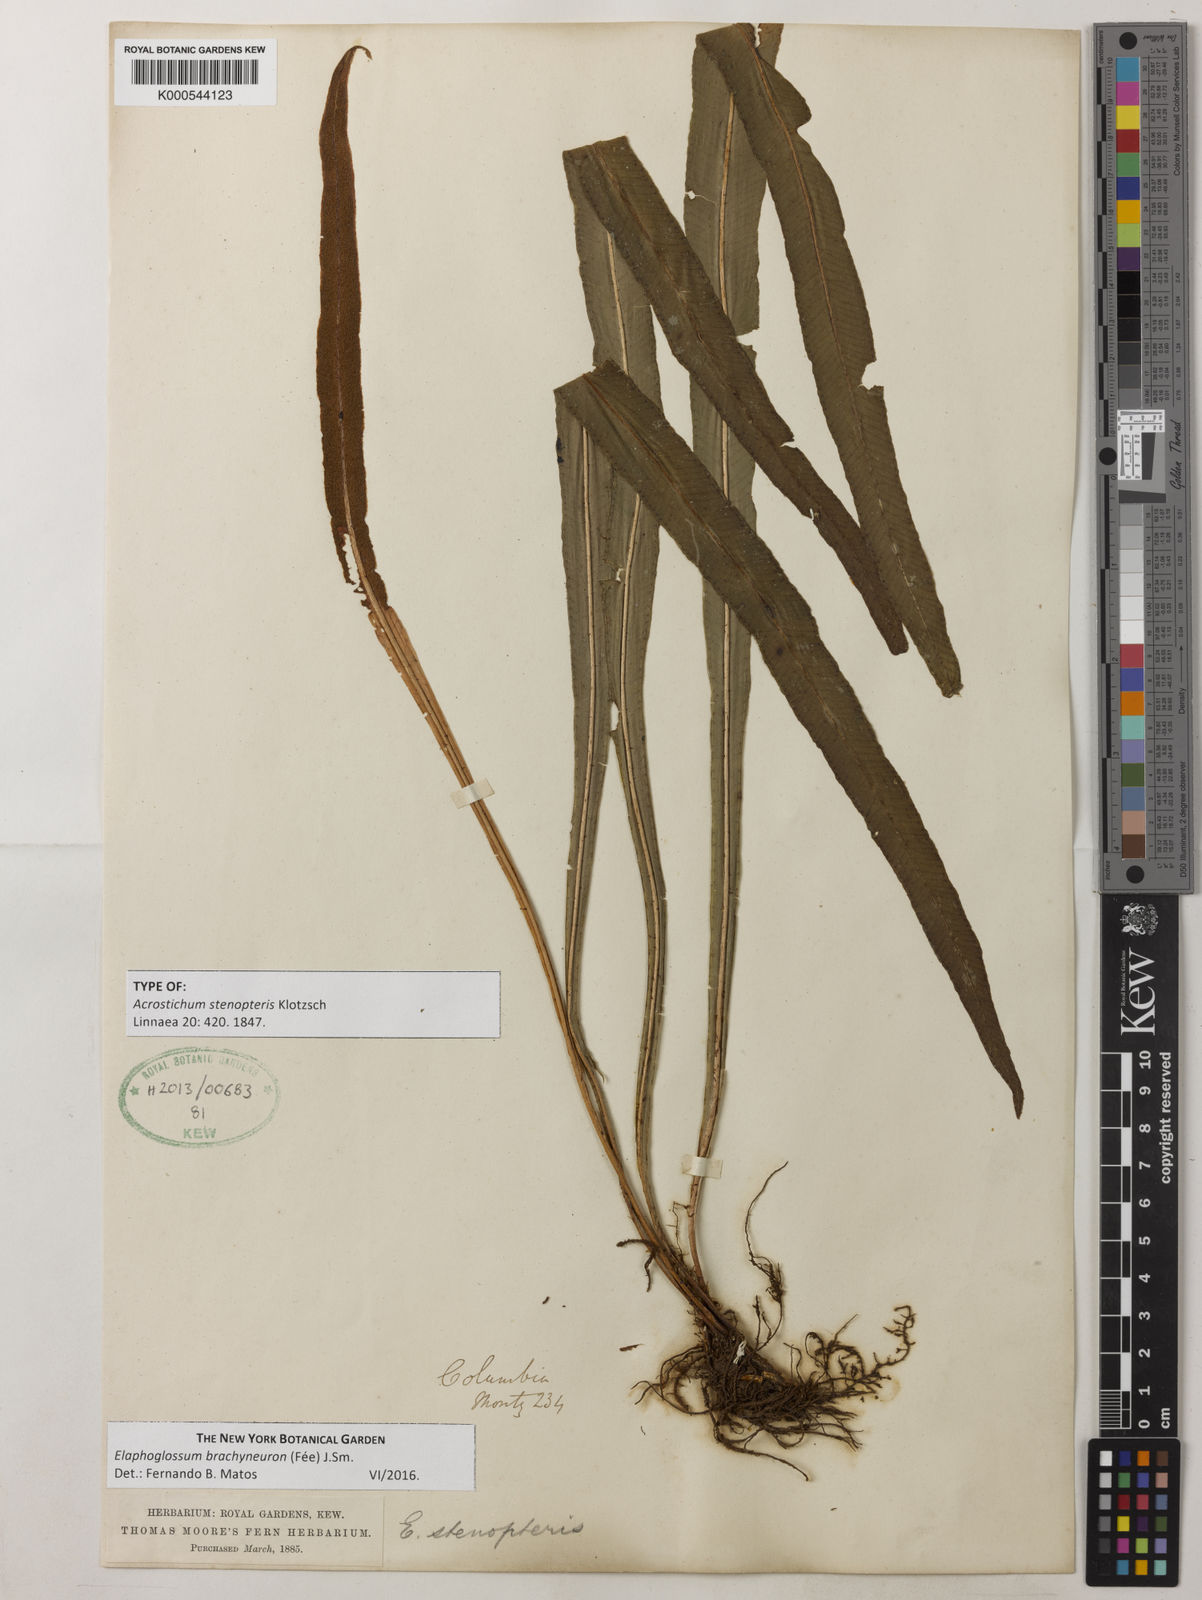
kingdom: Plantae
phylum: Tracheophyta
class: Polypodiopsida
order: Polypodiales
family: Dryopteridaceae
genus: Elaphoglossum
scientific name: Elaphoglossum
